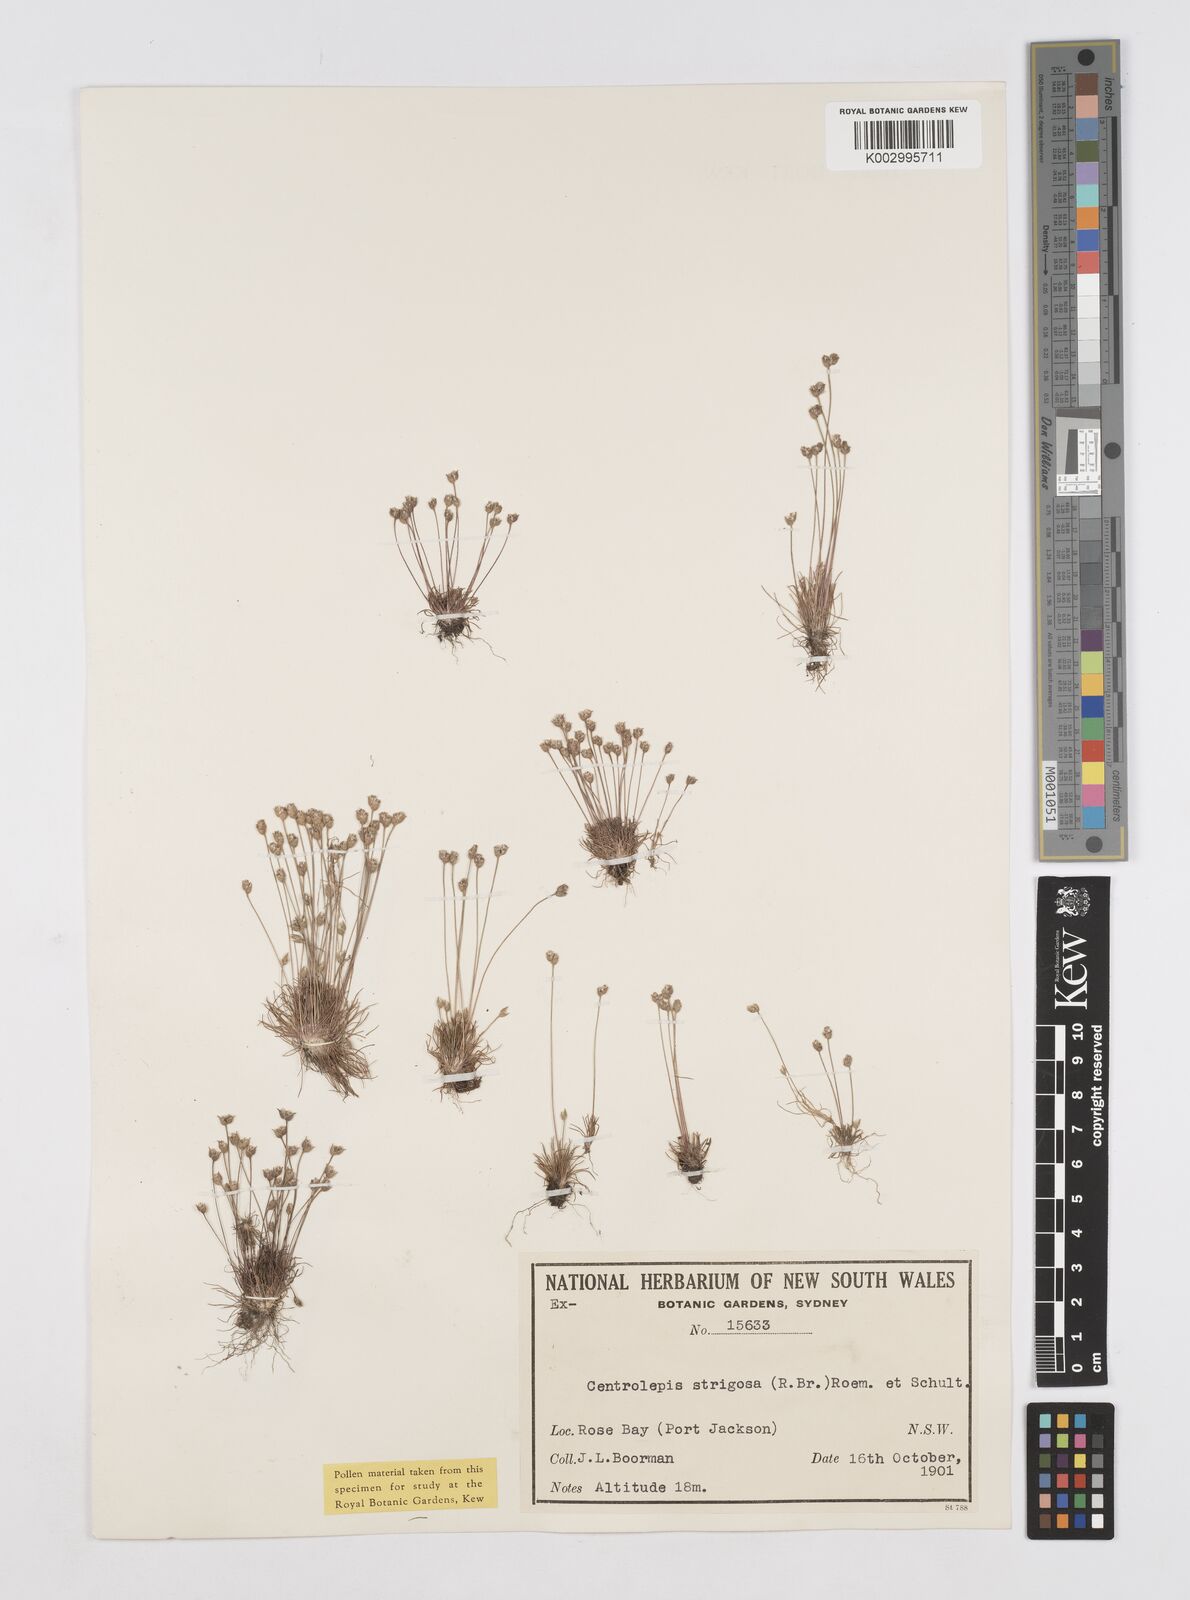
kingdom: Plantae
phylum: Tracheophyta
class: Liliopsida
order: Poales
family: Restionaceae
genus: Centrolepis
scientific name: Centrolepis strigosa
